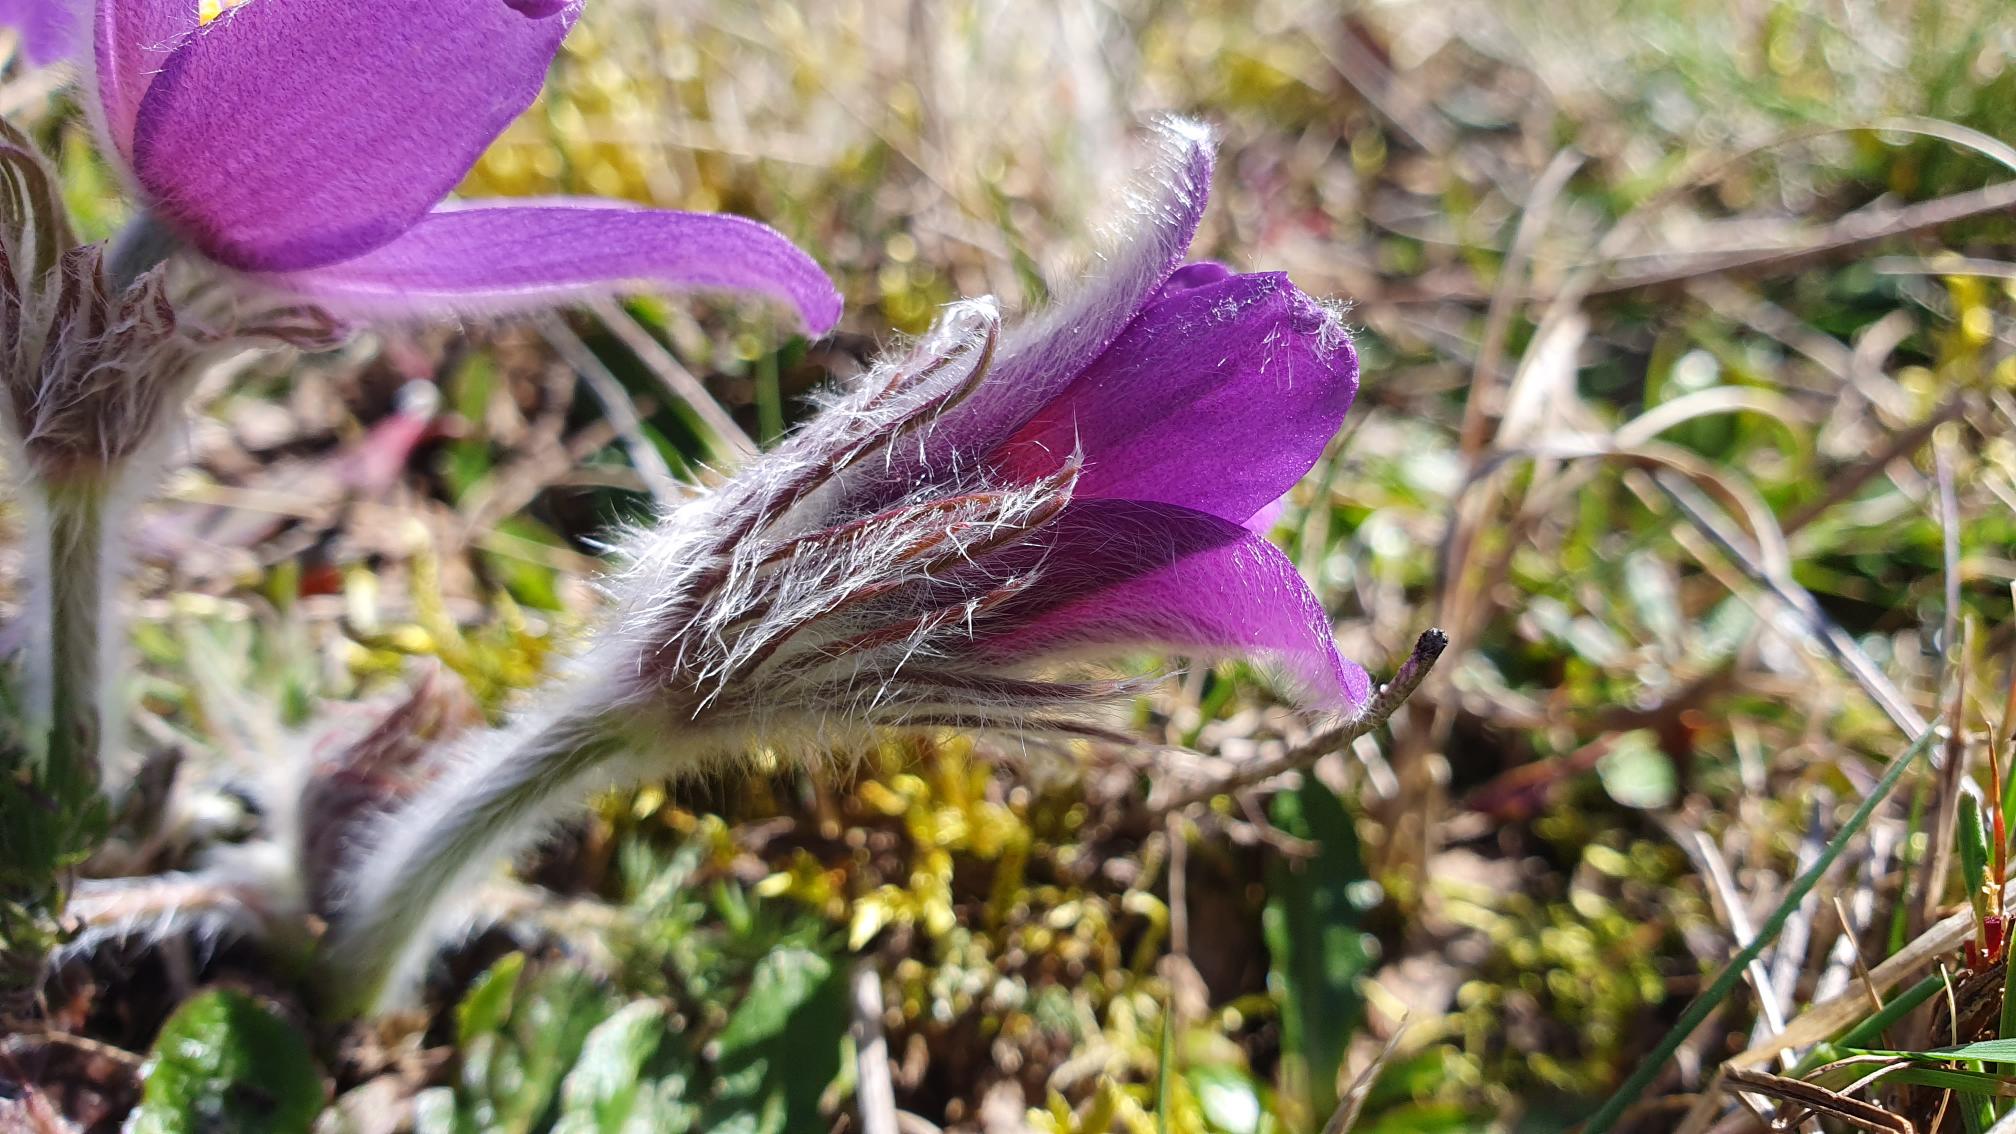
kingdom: Plantae
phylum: Tracheophyta
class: Magnoliopsida
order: Ranunculales
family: Ranunculaceae
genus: Pulsatilla
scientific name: Pulsatilla vulgaris
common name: Opret kobjælde
